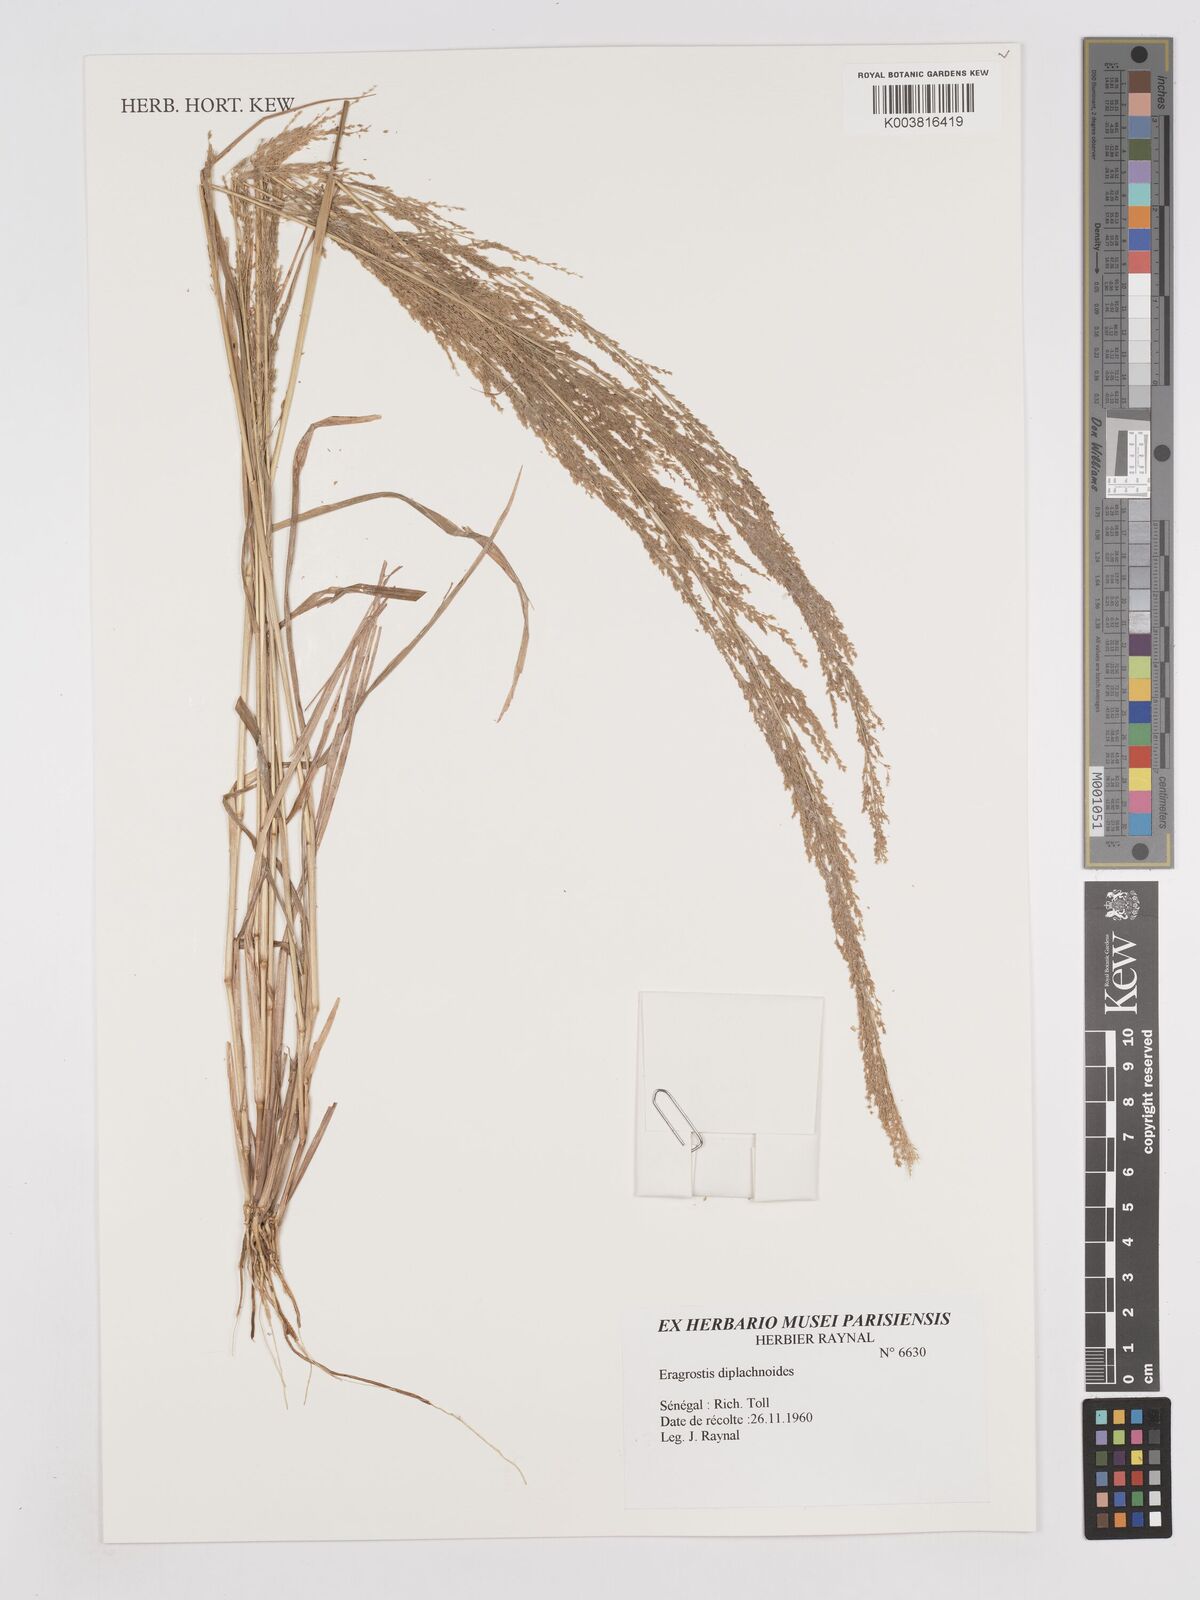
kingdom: Plantae
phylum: Tracheophyta
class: Liliopsida
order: Poales
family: Poaceae
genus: Eragrostis
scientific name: Eragrostis japonica
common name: Pond lovegrass
